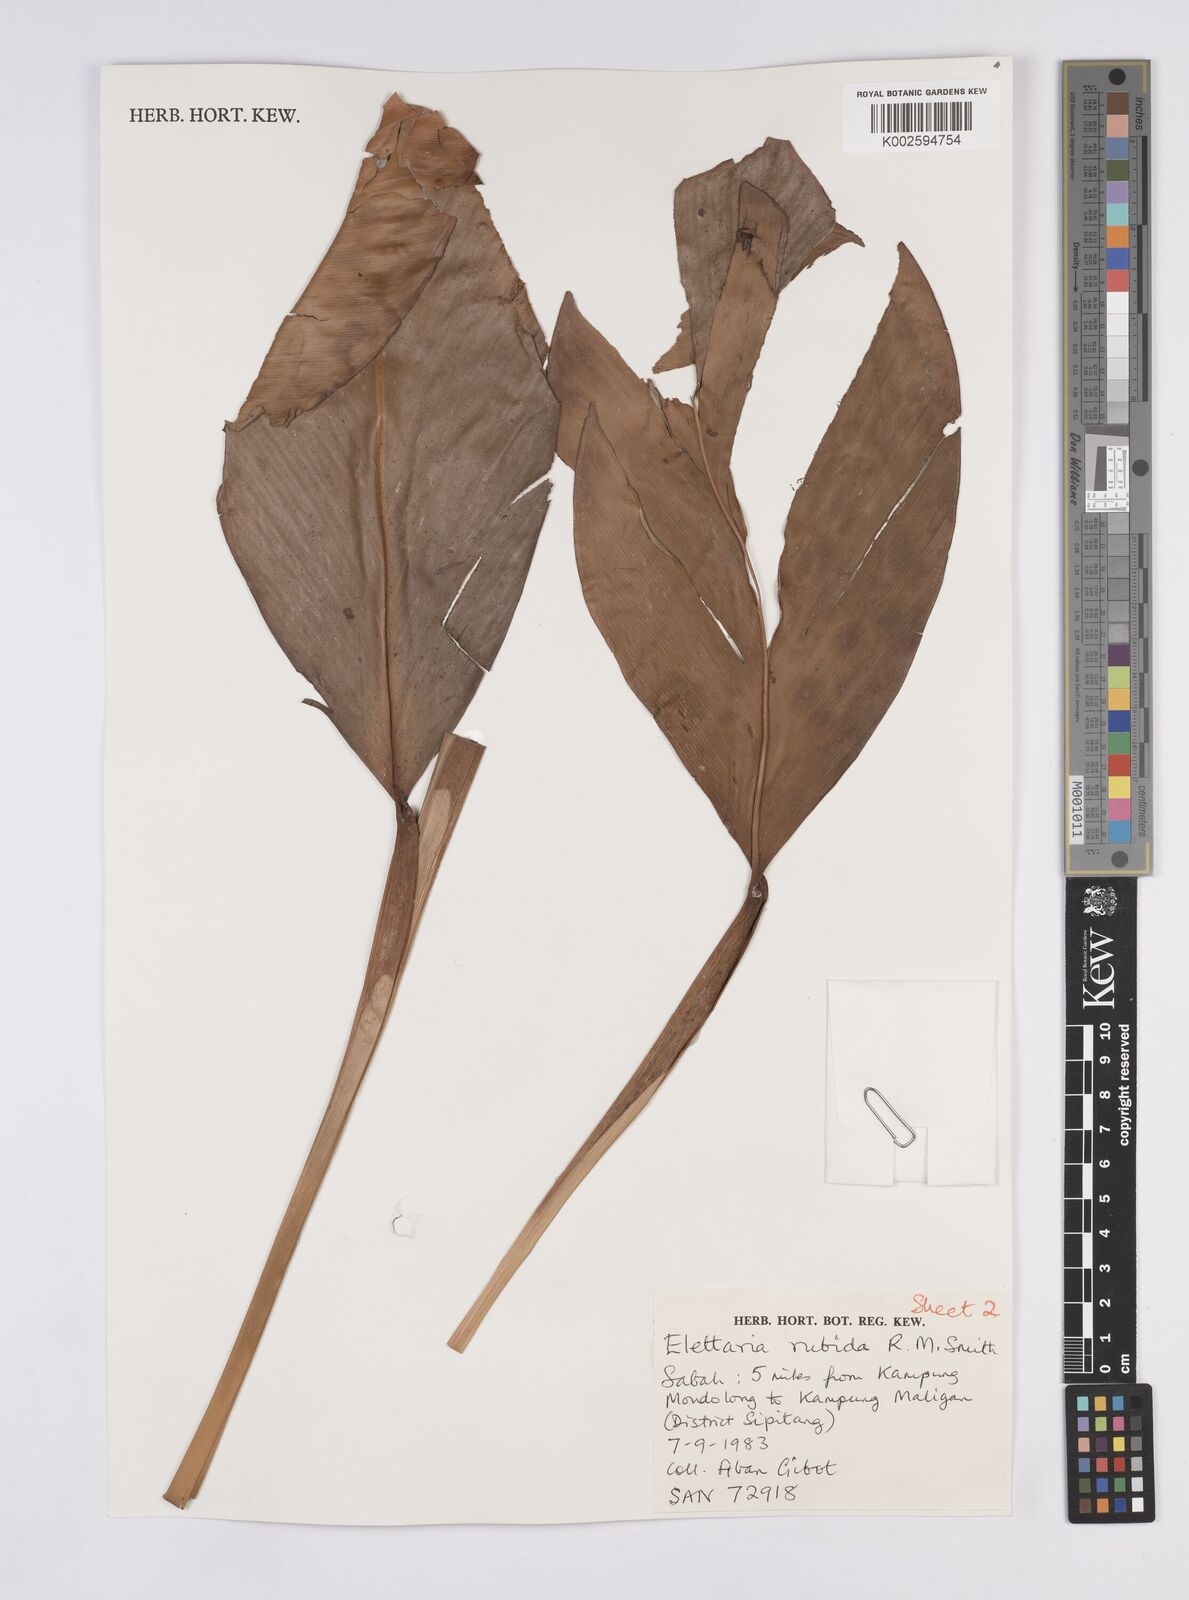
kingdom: Plantae
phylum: Tracheophyta
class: Liliopsida
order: Zingiberales
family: Zingiberaceae
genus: Sulettaria
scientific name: Sulettaria rubida
